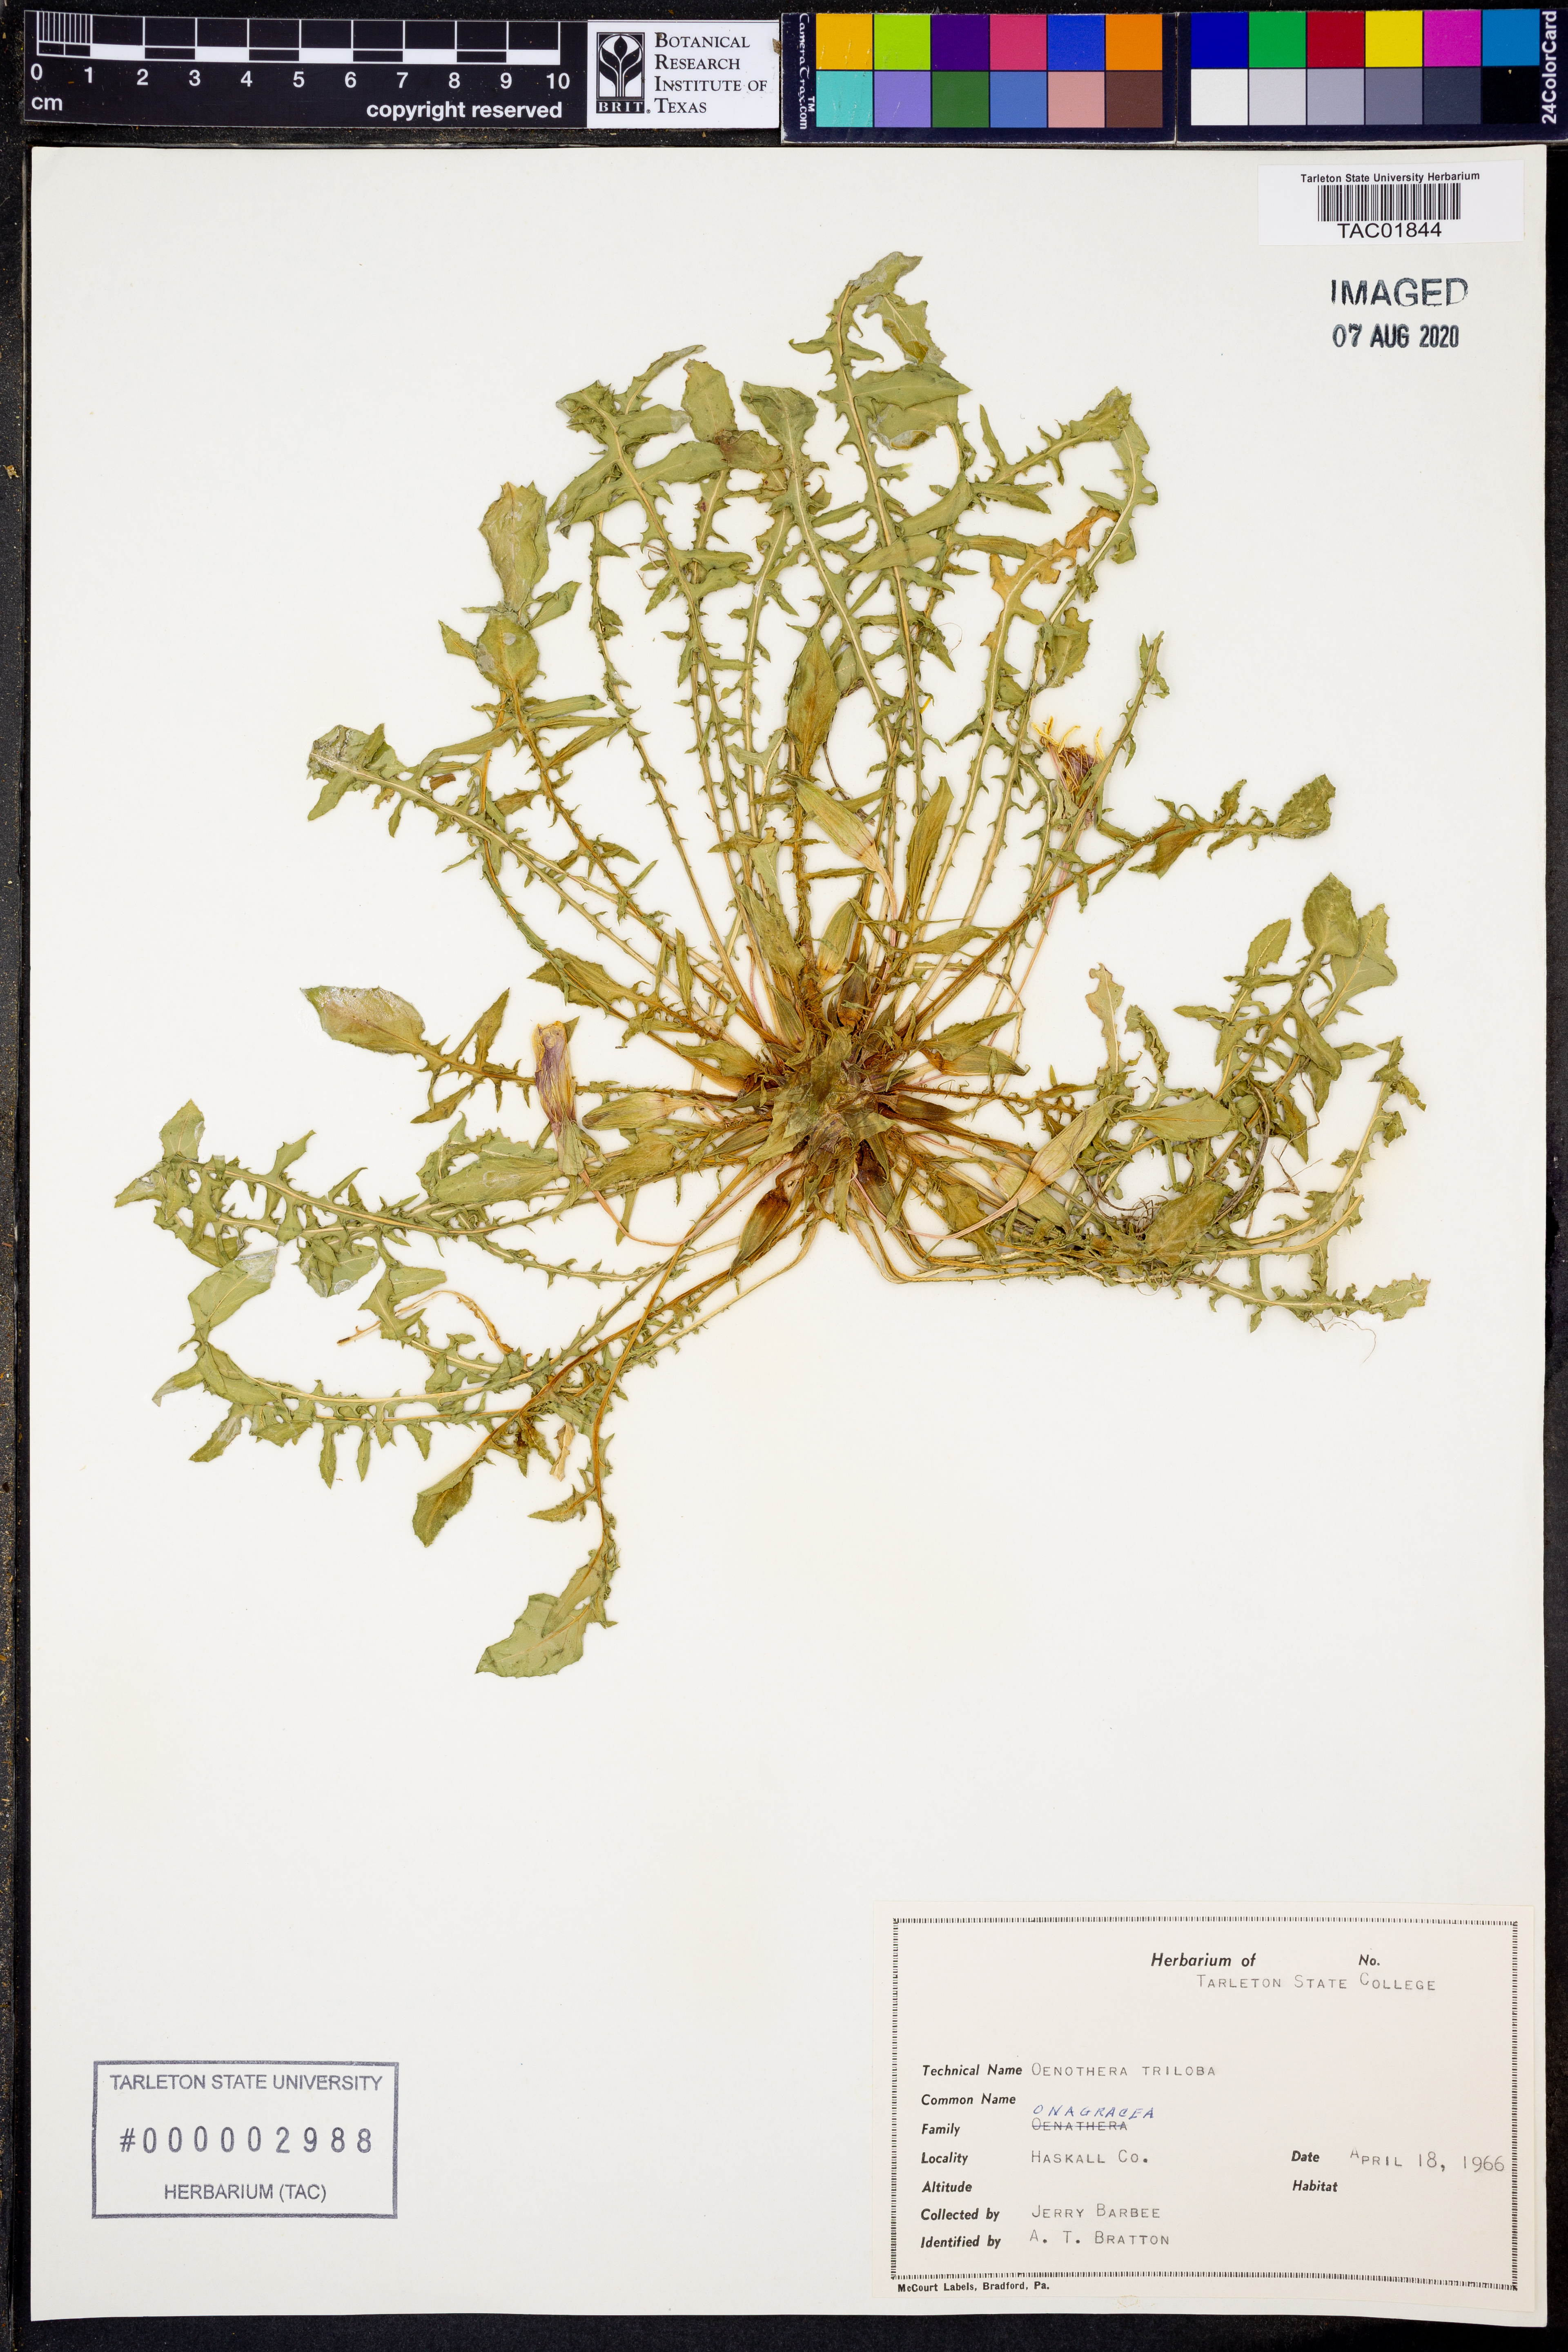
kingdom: Plantae
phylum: Tracheophyta
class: Magnoliopsida
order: Myrtales
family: Onagraceae
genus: Oenothera
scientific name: Oenothera triloba
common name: Sessile evening-primrose
